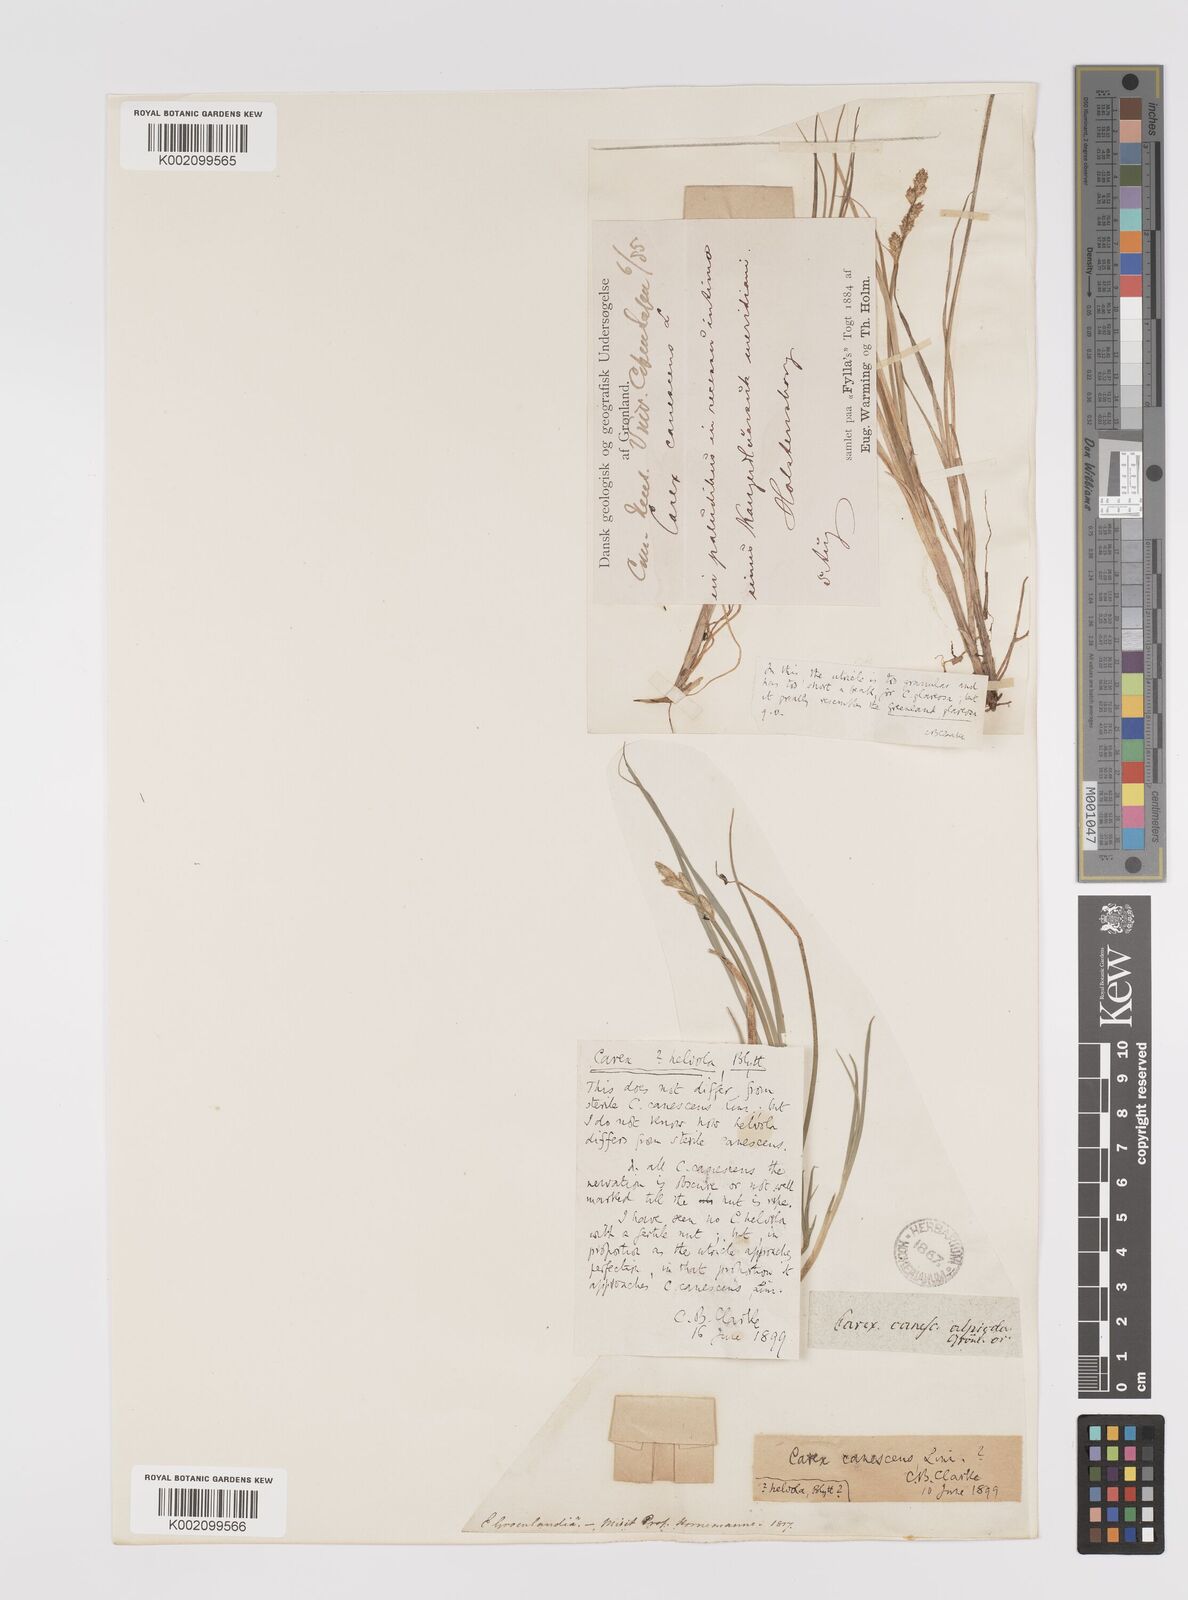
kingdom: Plantae
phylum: Tracheophyta
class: Liliopsida
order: Poales
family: Cyperaceae
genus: Carex
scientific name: Carex helvola
